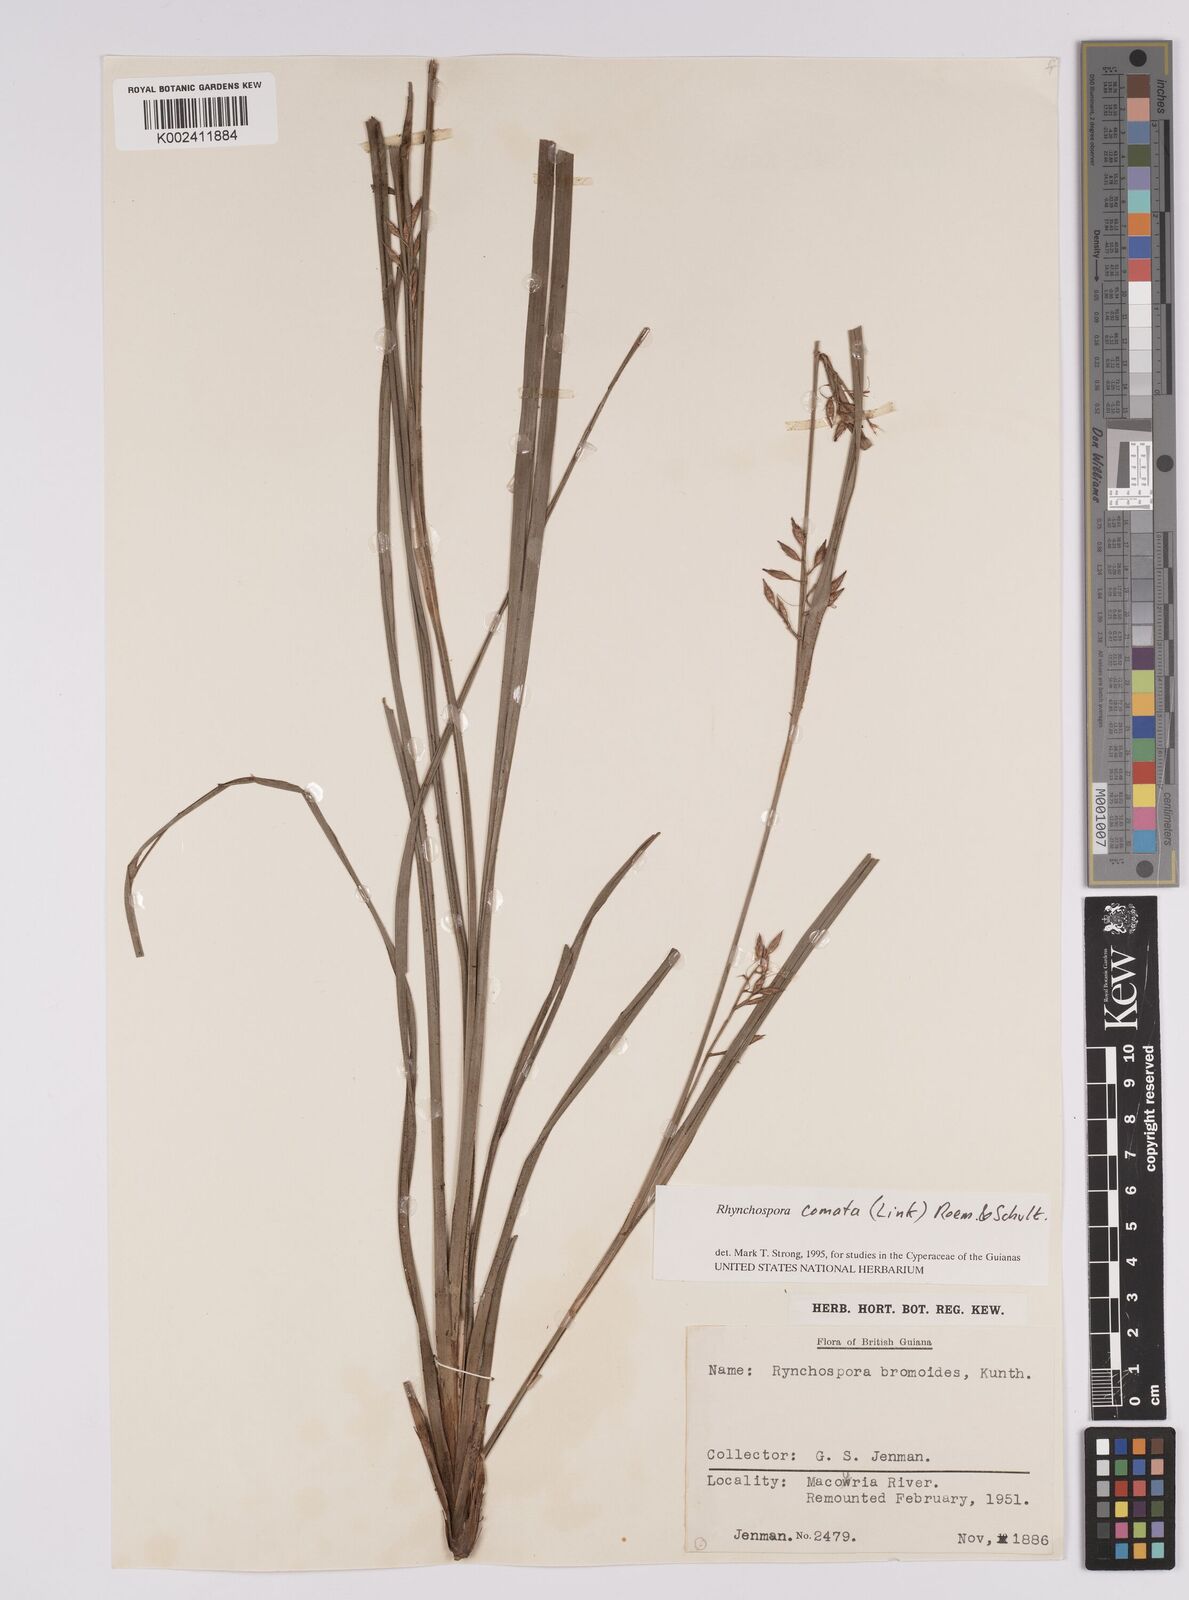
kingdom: Plantae
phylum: Tracheophyta
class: Liliopsida
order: Poales
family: Cyperaceae
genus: Rhynchospora
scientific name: Rhynchospora comata
